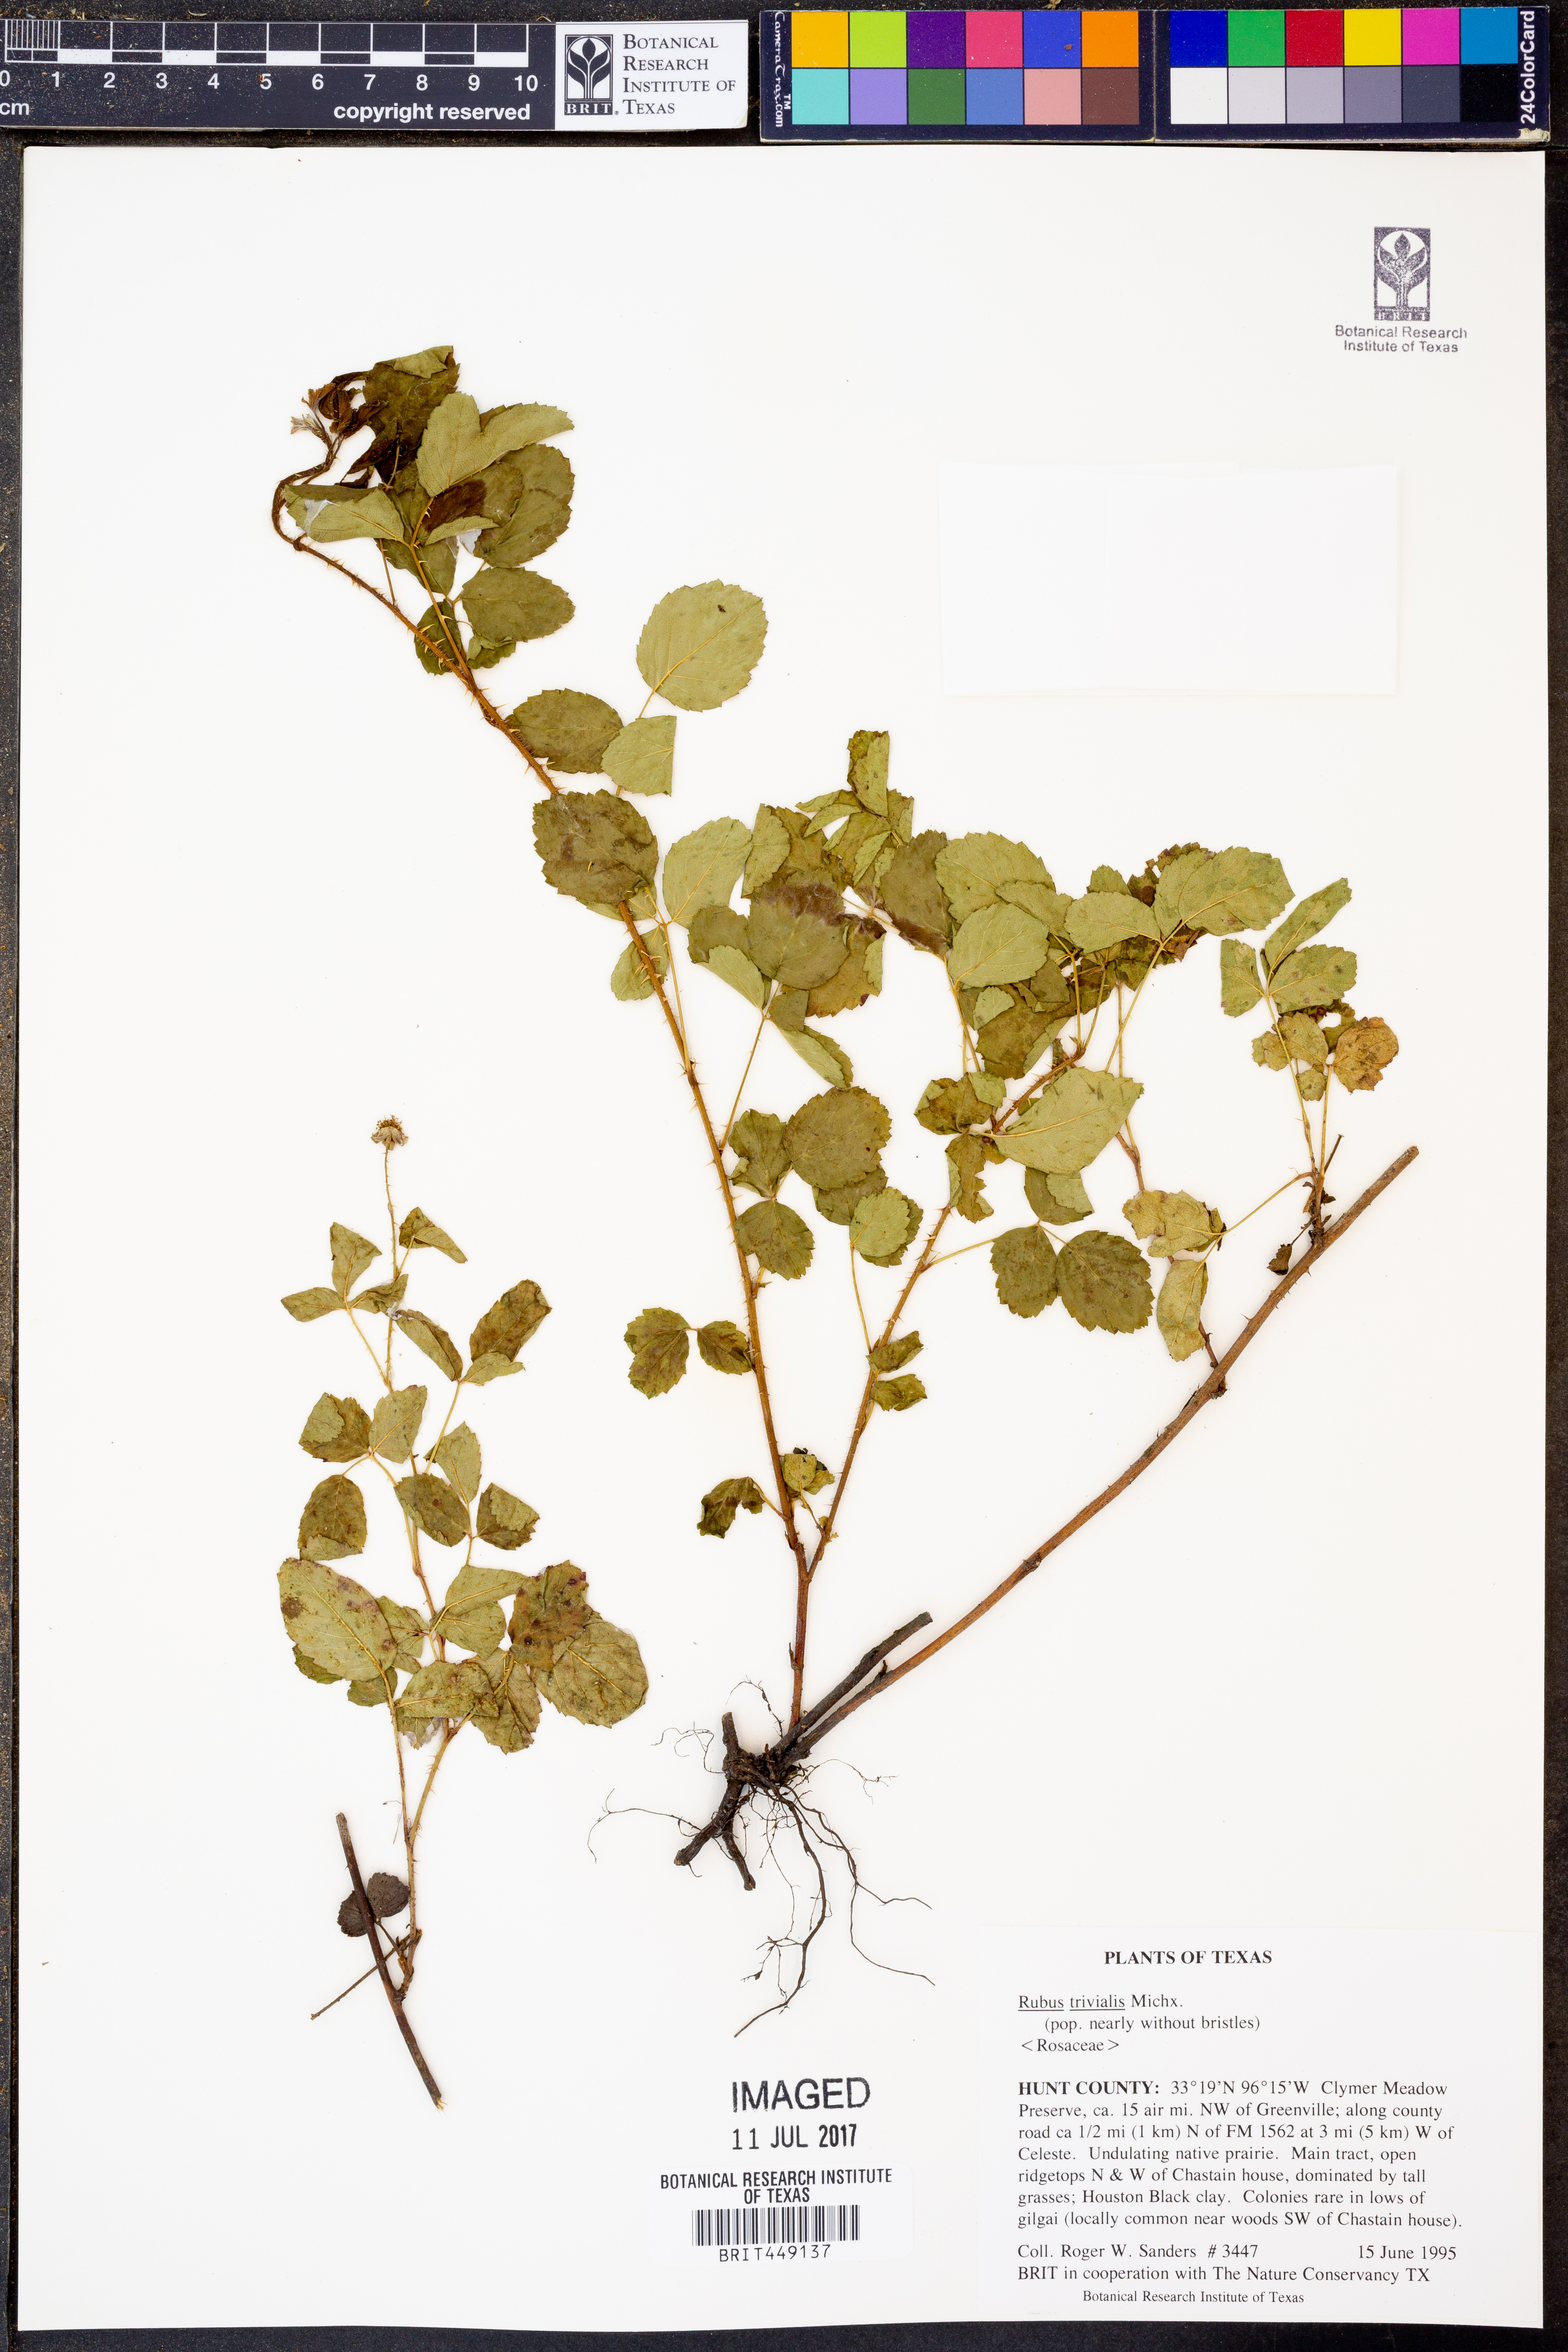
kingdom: Plantae
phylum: Tracheophyta
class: Magnoliopsida
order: Rosales
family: Rosaceae
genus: Rubus
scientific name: Rubus trivialis
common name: Southern dewberry
